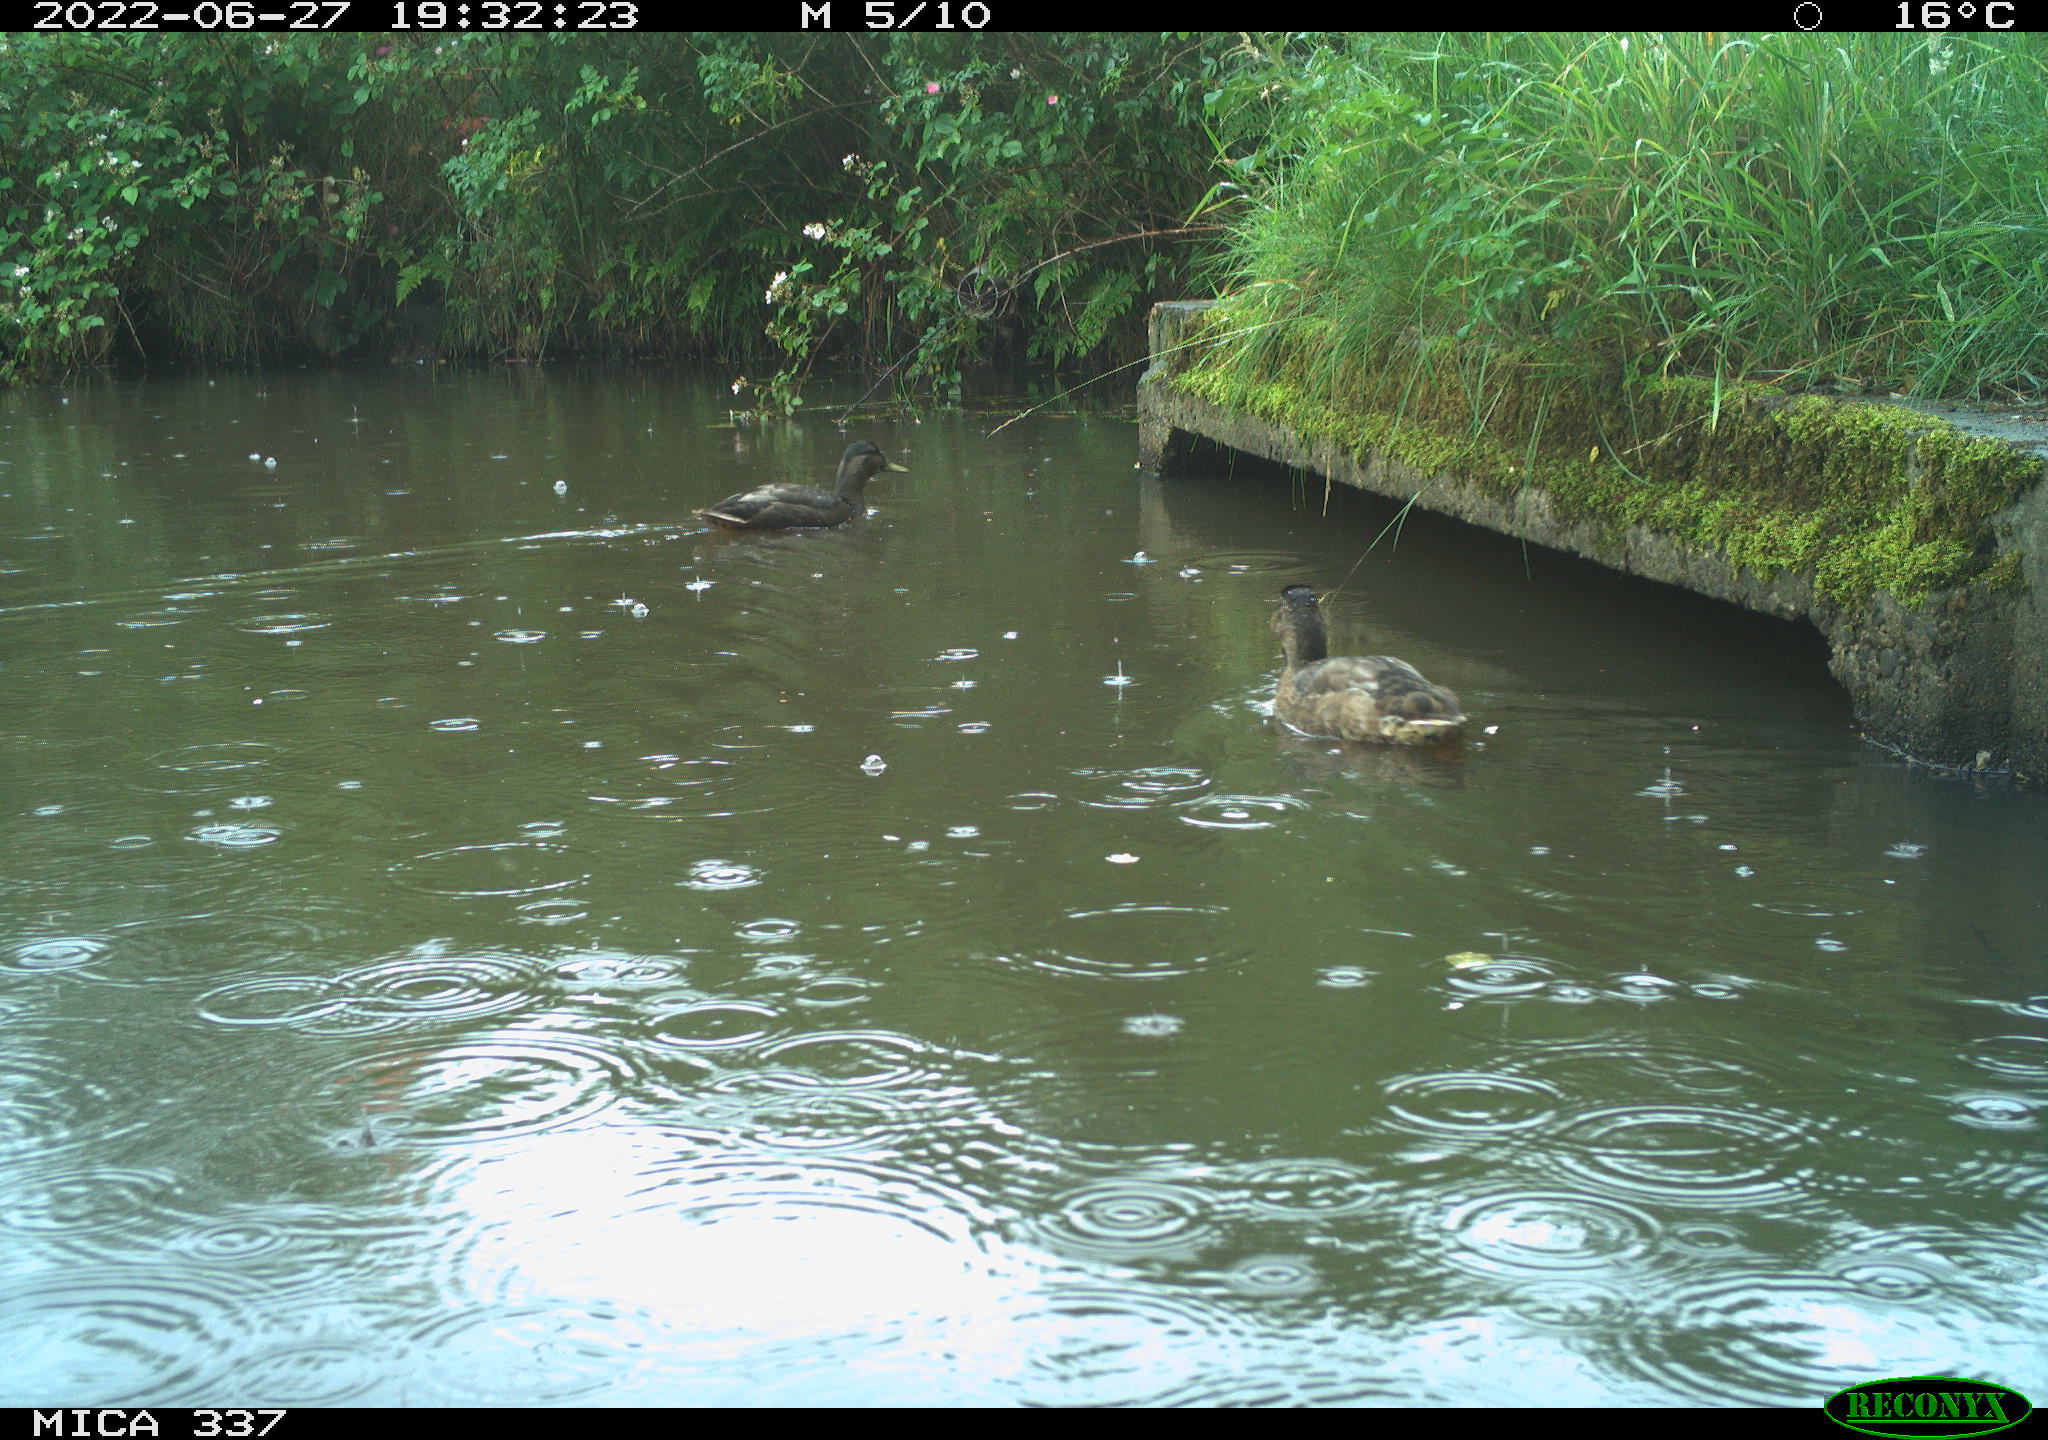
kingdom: Animalia
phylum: Chordata
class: Aves
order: Anseriformes
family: Anatidae
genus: Anas
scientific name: Anas platyrhynchos
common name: Mallard
